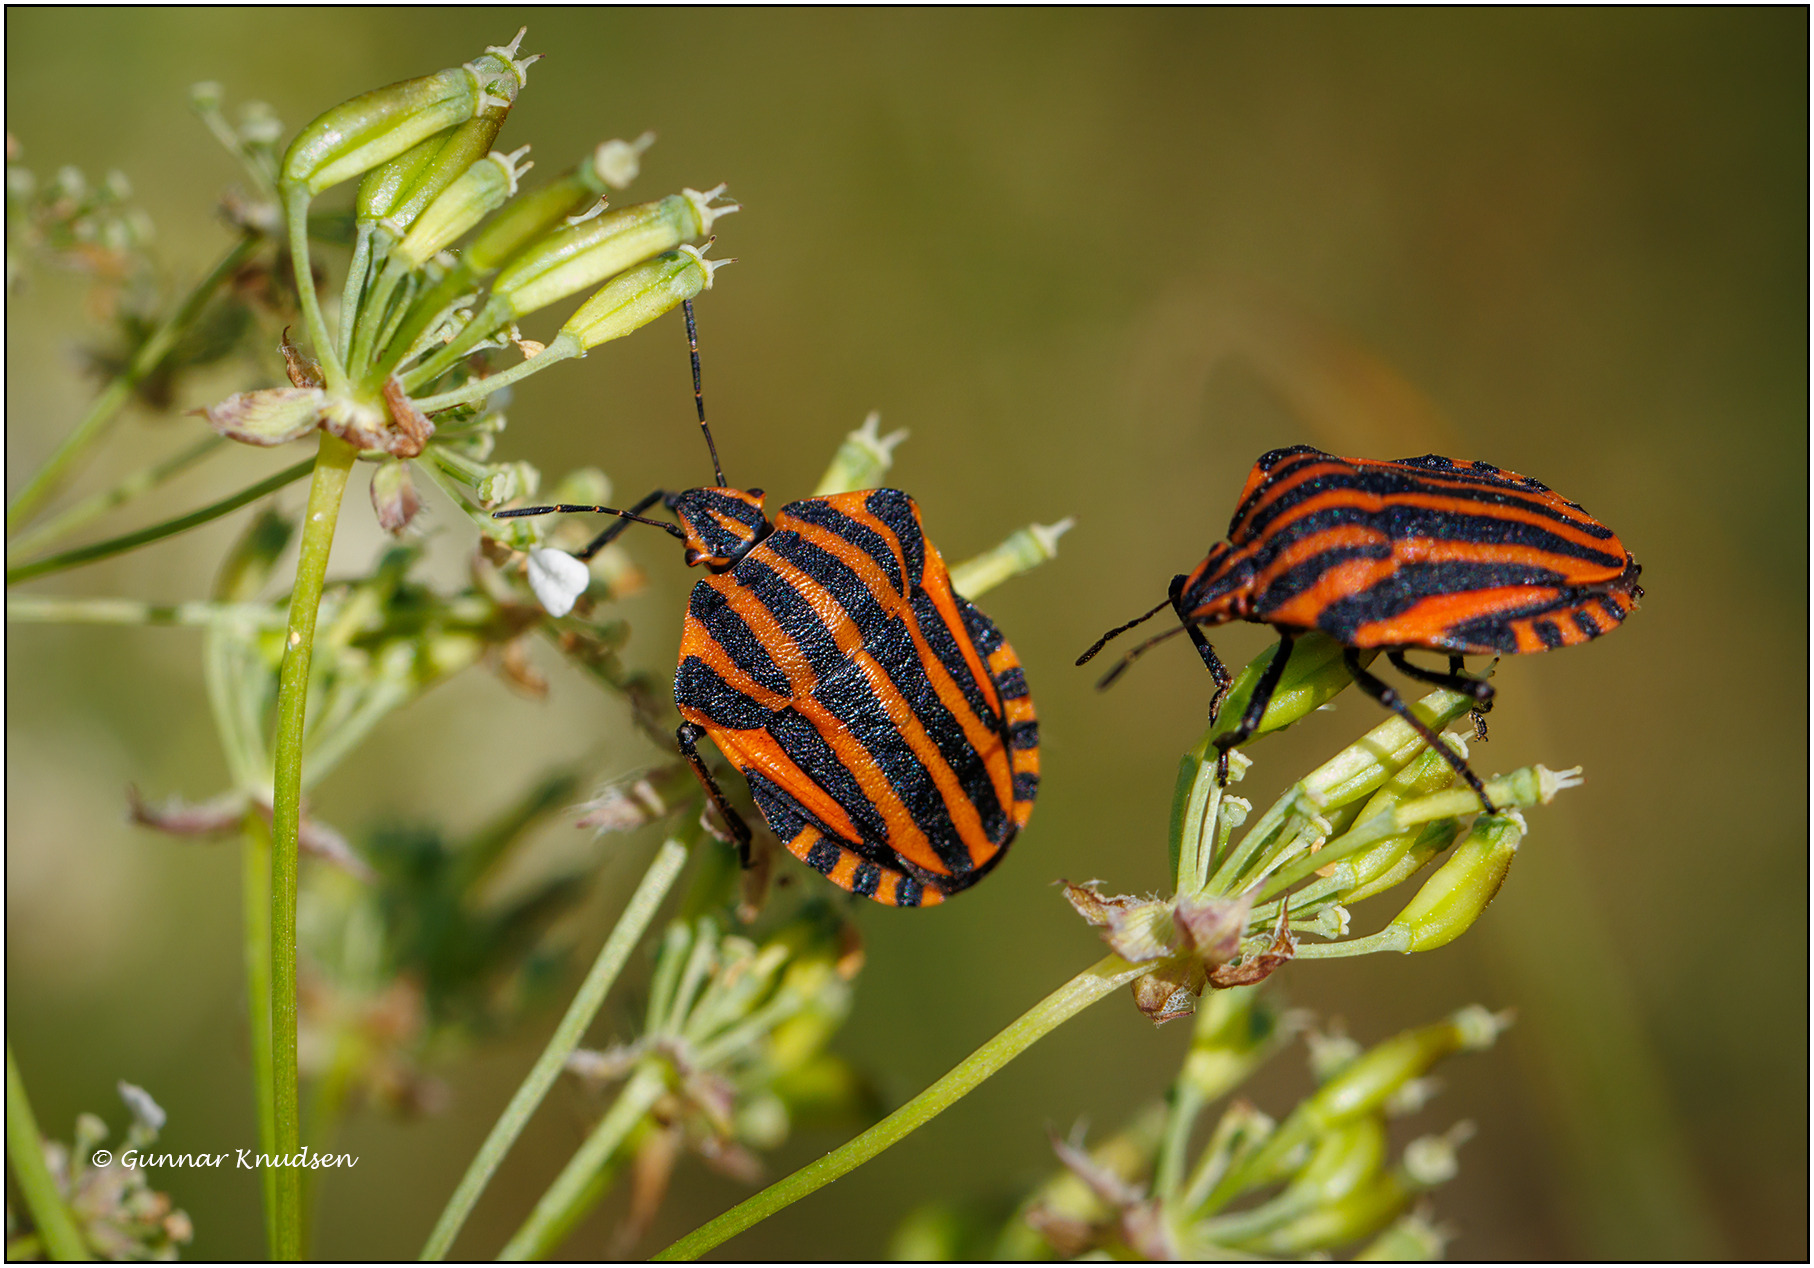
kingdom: Animalia
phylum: Arthropoda
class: Insecta
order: Hemiptera
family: Pentatomidae
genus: Graphosoma
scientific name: Graphosoma italicum
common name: Stribetæge
